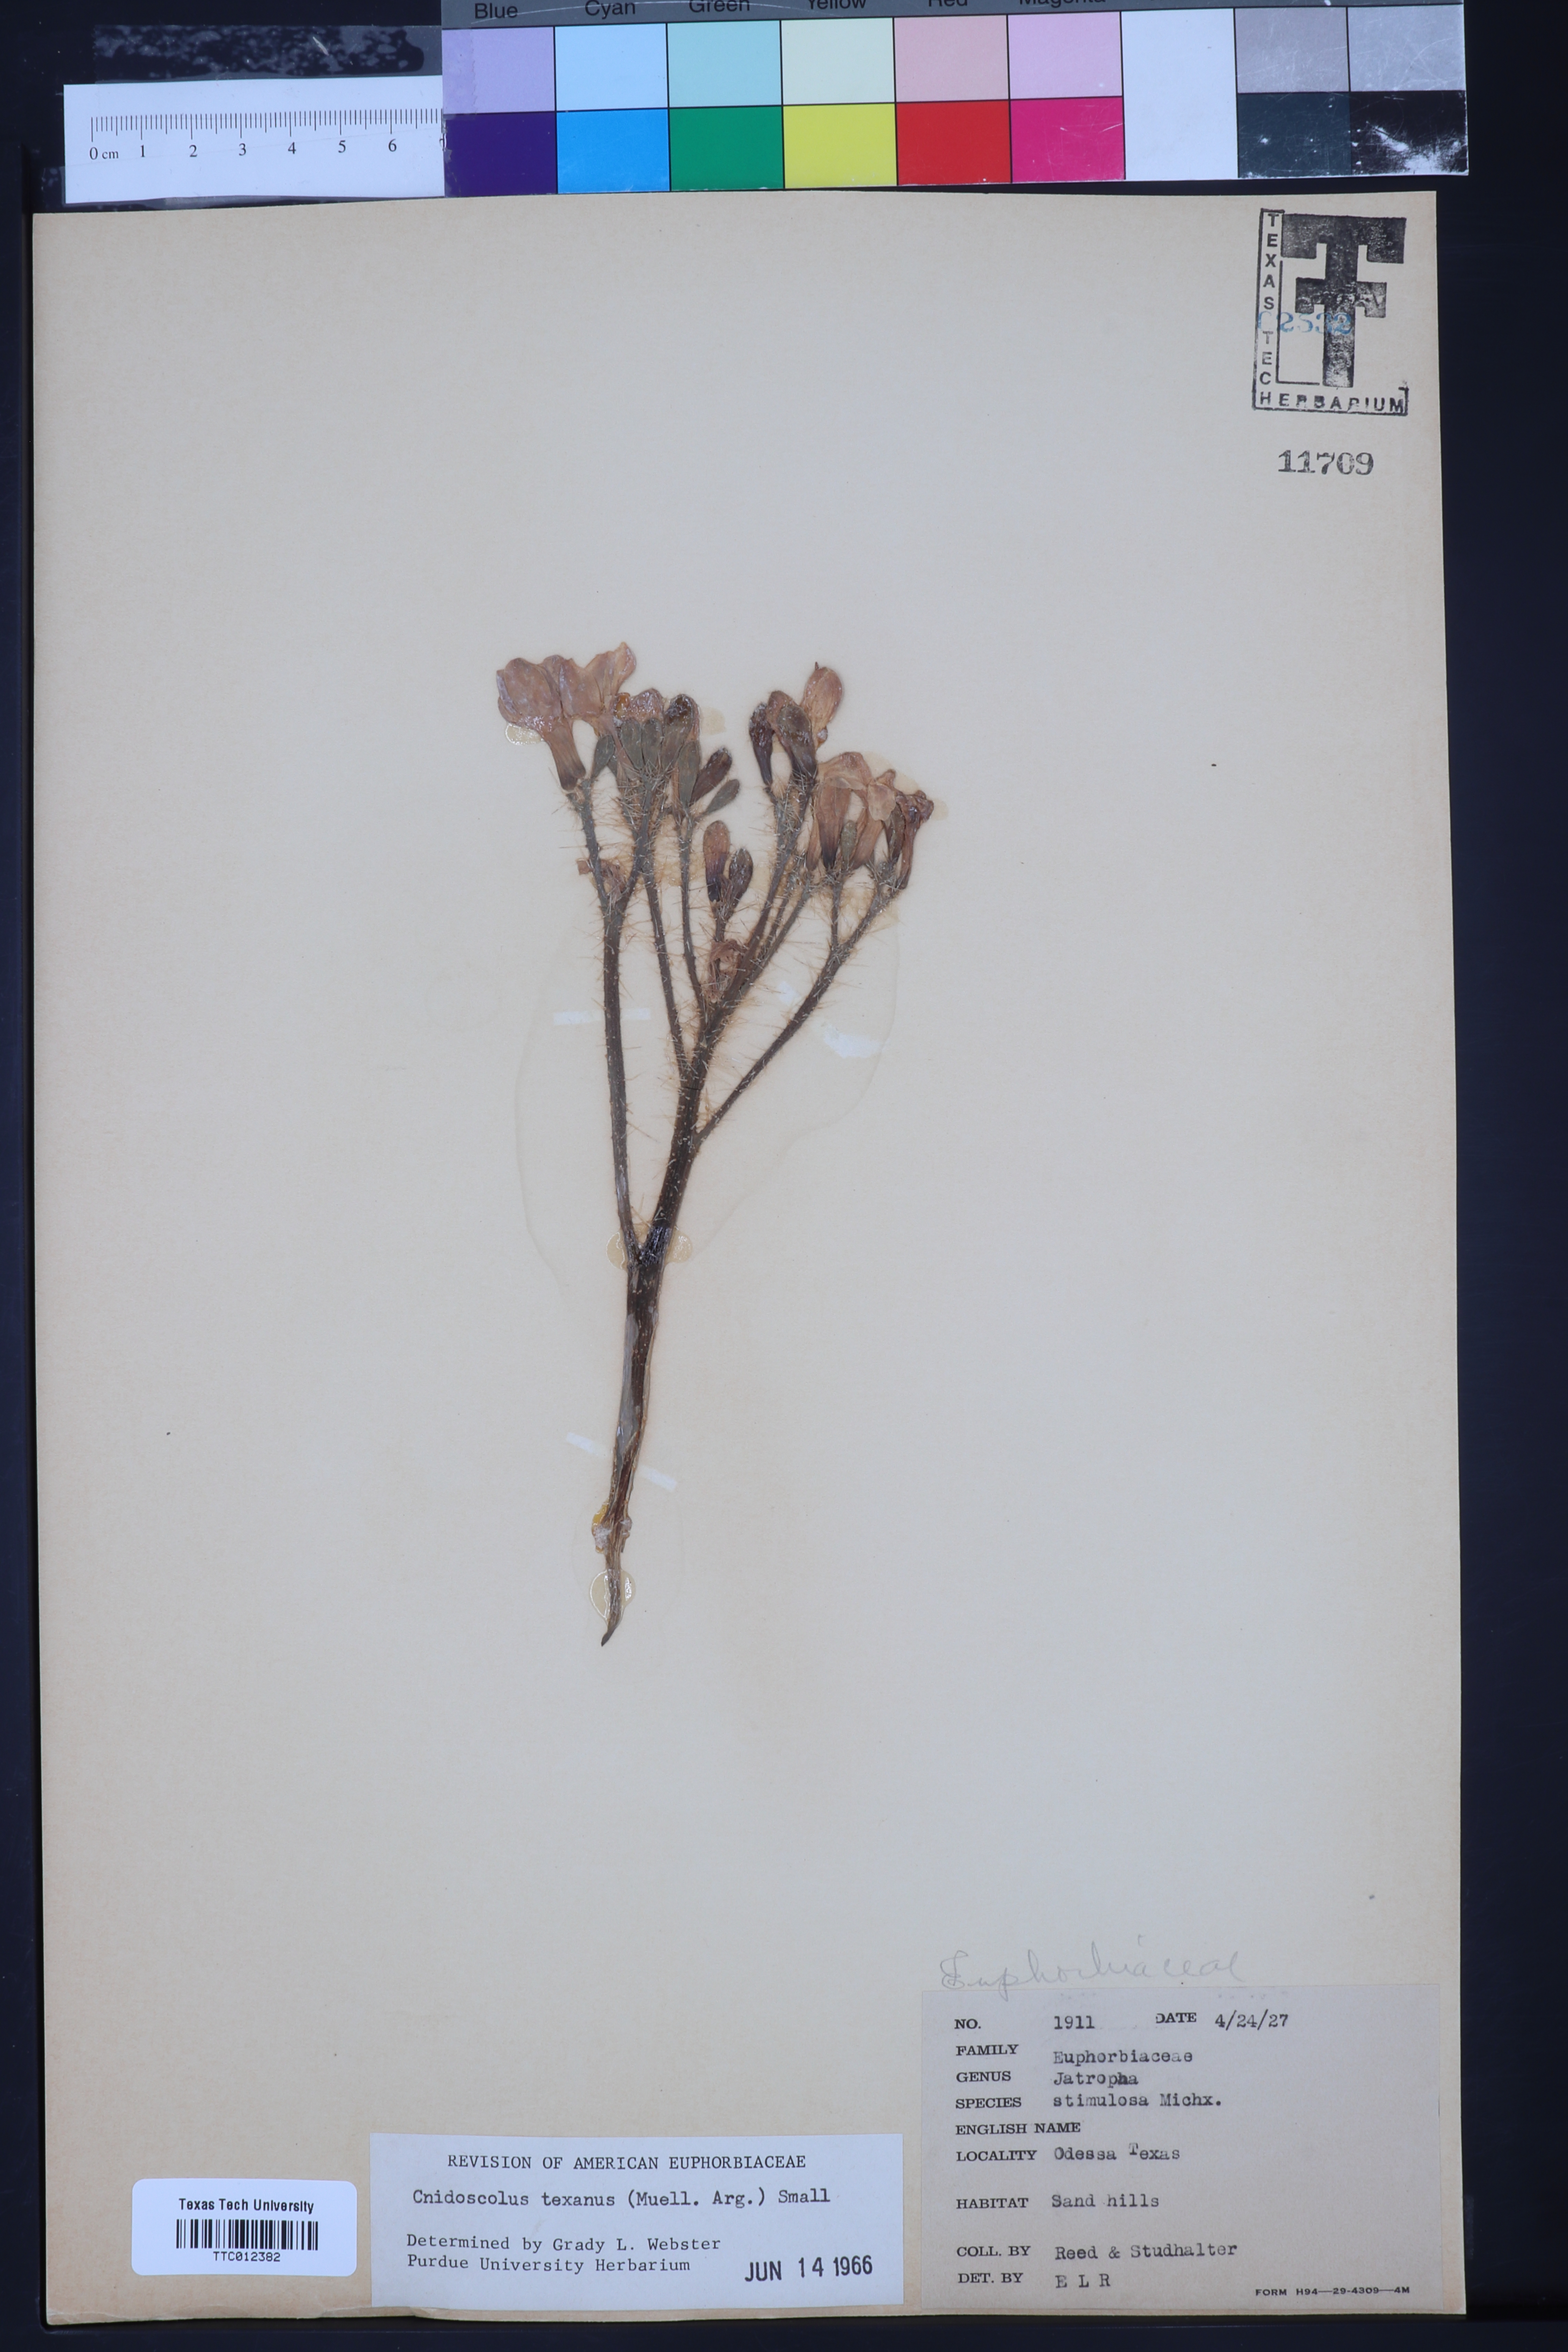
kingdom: Plantae
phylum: Tracheophyta
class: Magnoliopsida
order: Malpighiales
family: Euphorbiaceae
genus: Cnidoscolus
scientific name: Cnidoscolus texanus
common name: Texas bull-nettle
